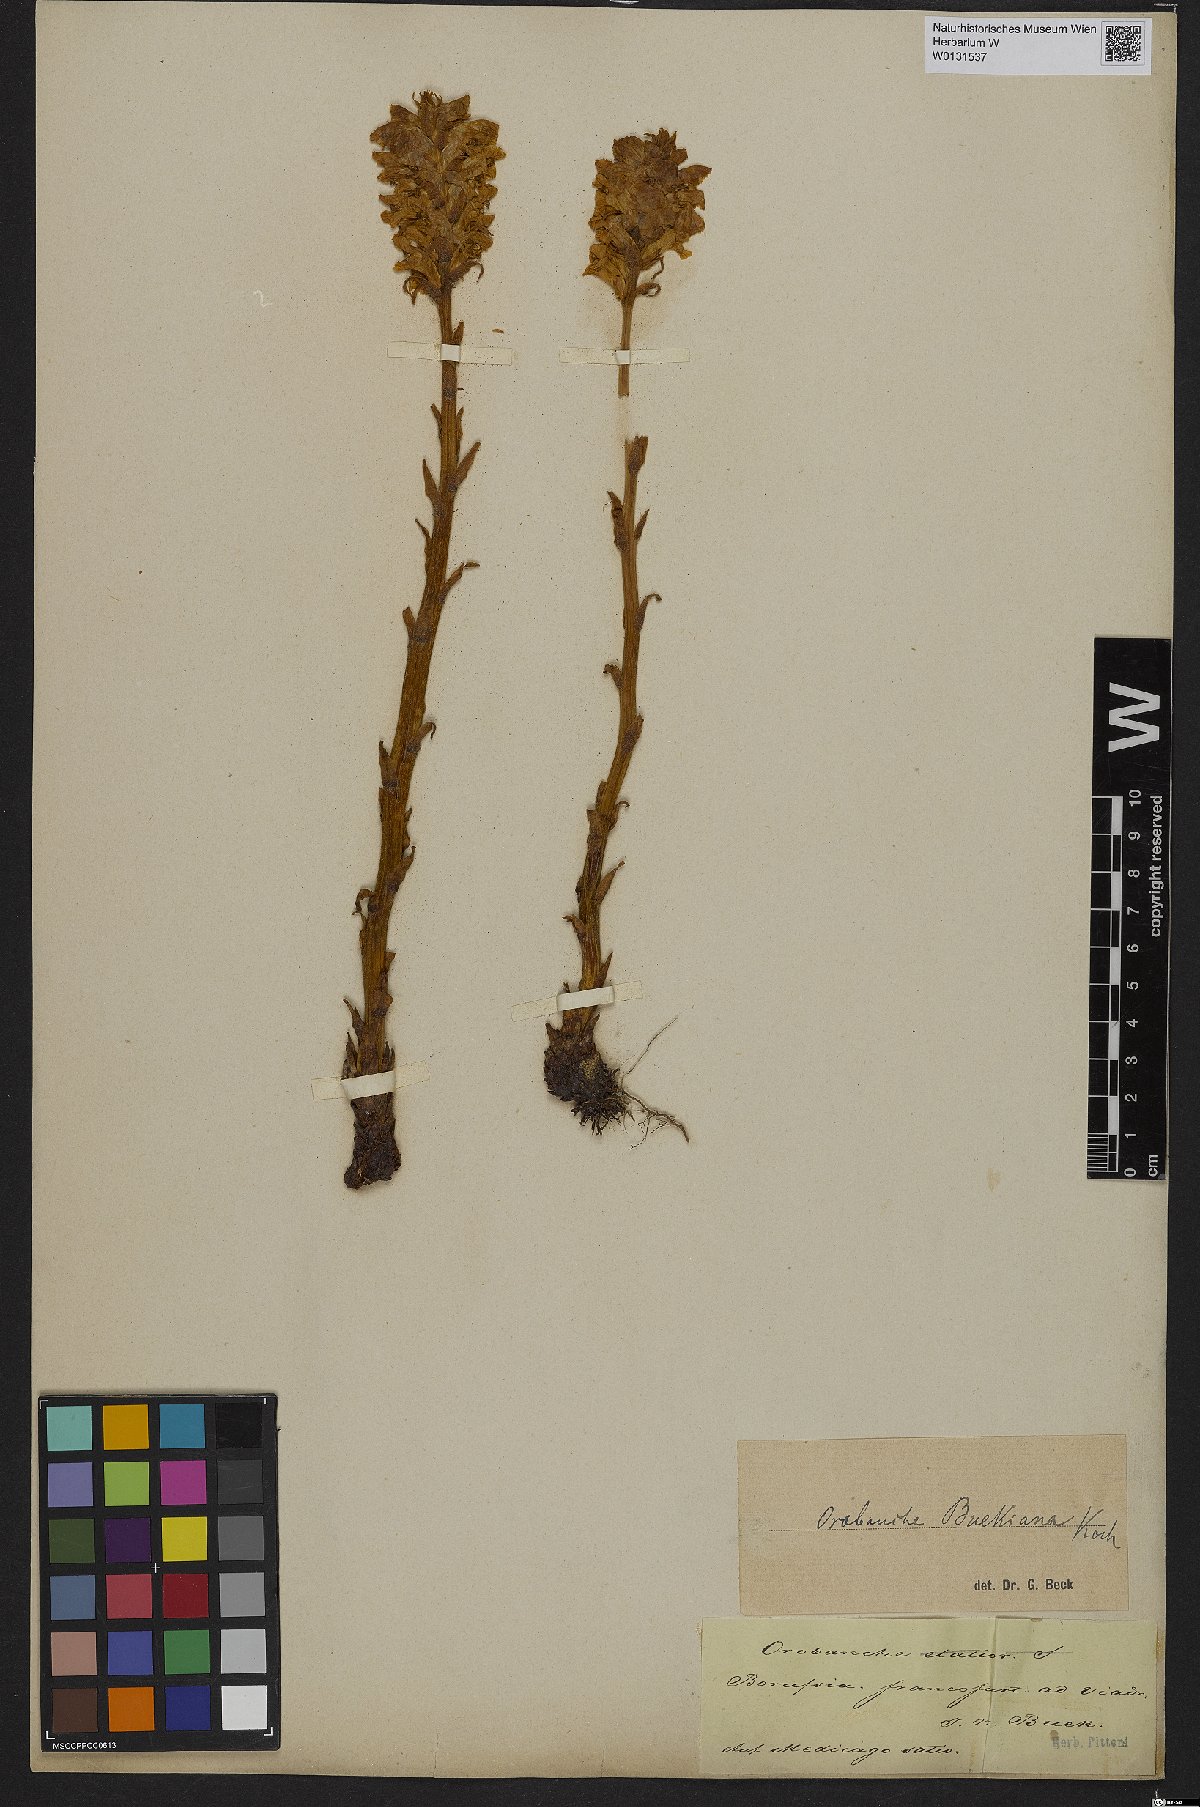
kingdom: Plantae
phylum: Tracheophyta
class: Magnoliopsida
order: Lamiales
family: Orobanchaceae
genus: Orobanche
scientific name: Orobanche lutea
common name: Yellow broomrape
